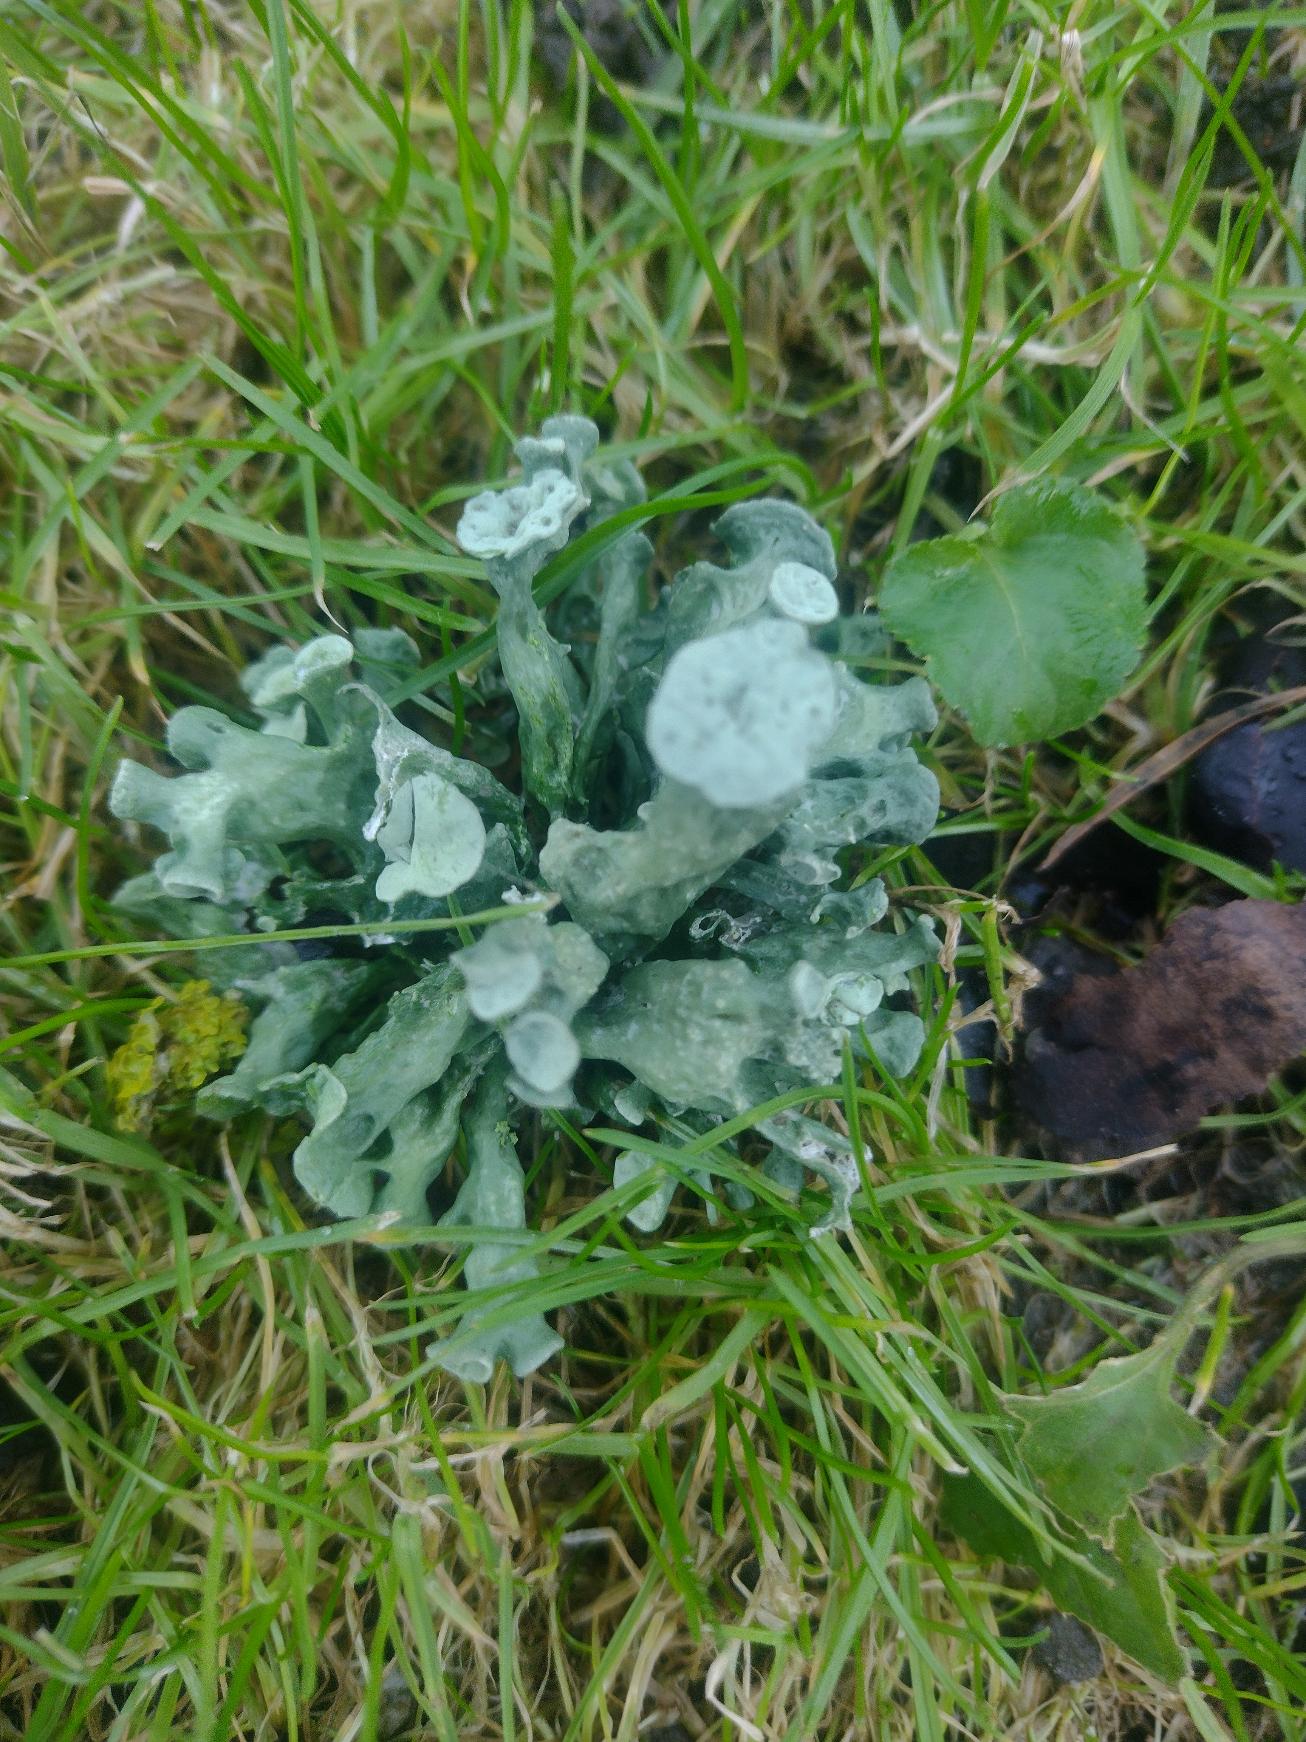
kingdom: Fungi
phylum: Ascomycota
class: Lecanoromycetes
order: Lecanorales
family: Ramalinaceae
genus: Ramalina
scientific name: Ramalina fastigiata
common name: Tue-grenlav
